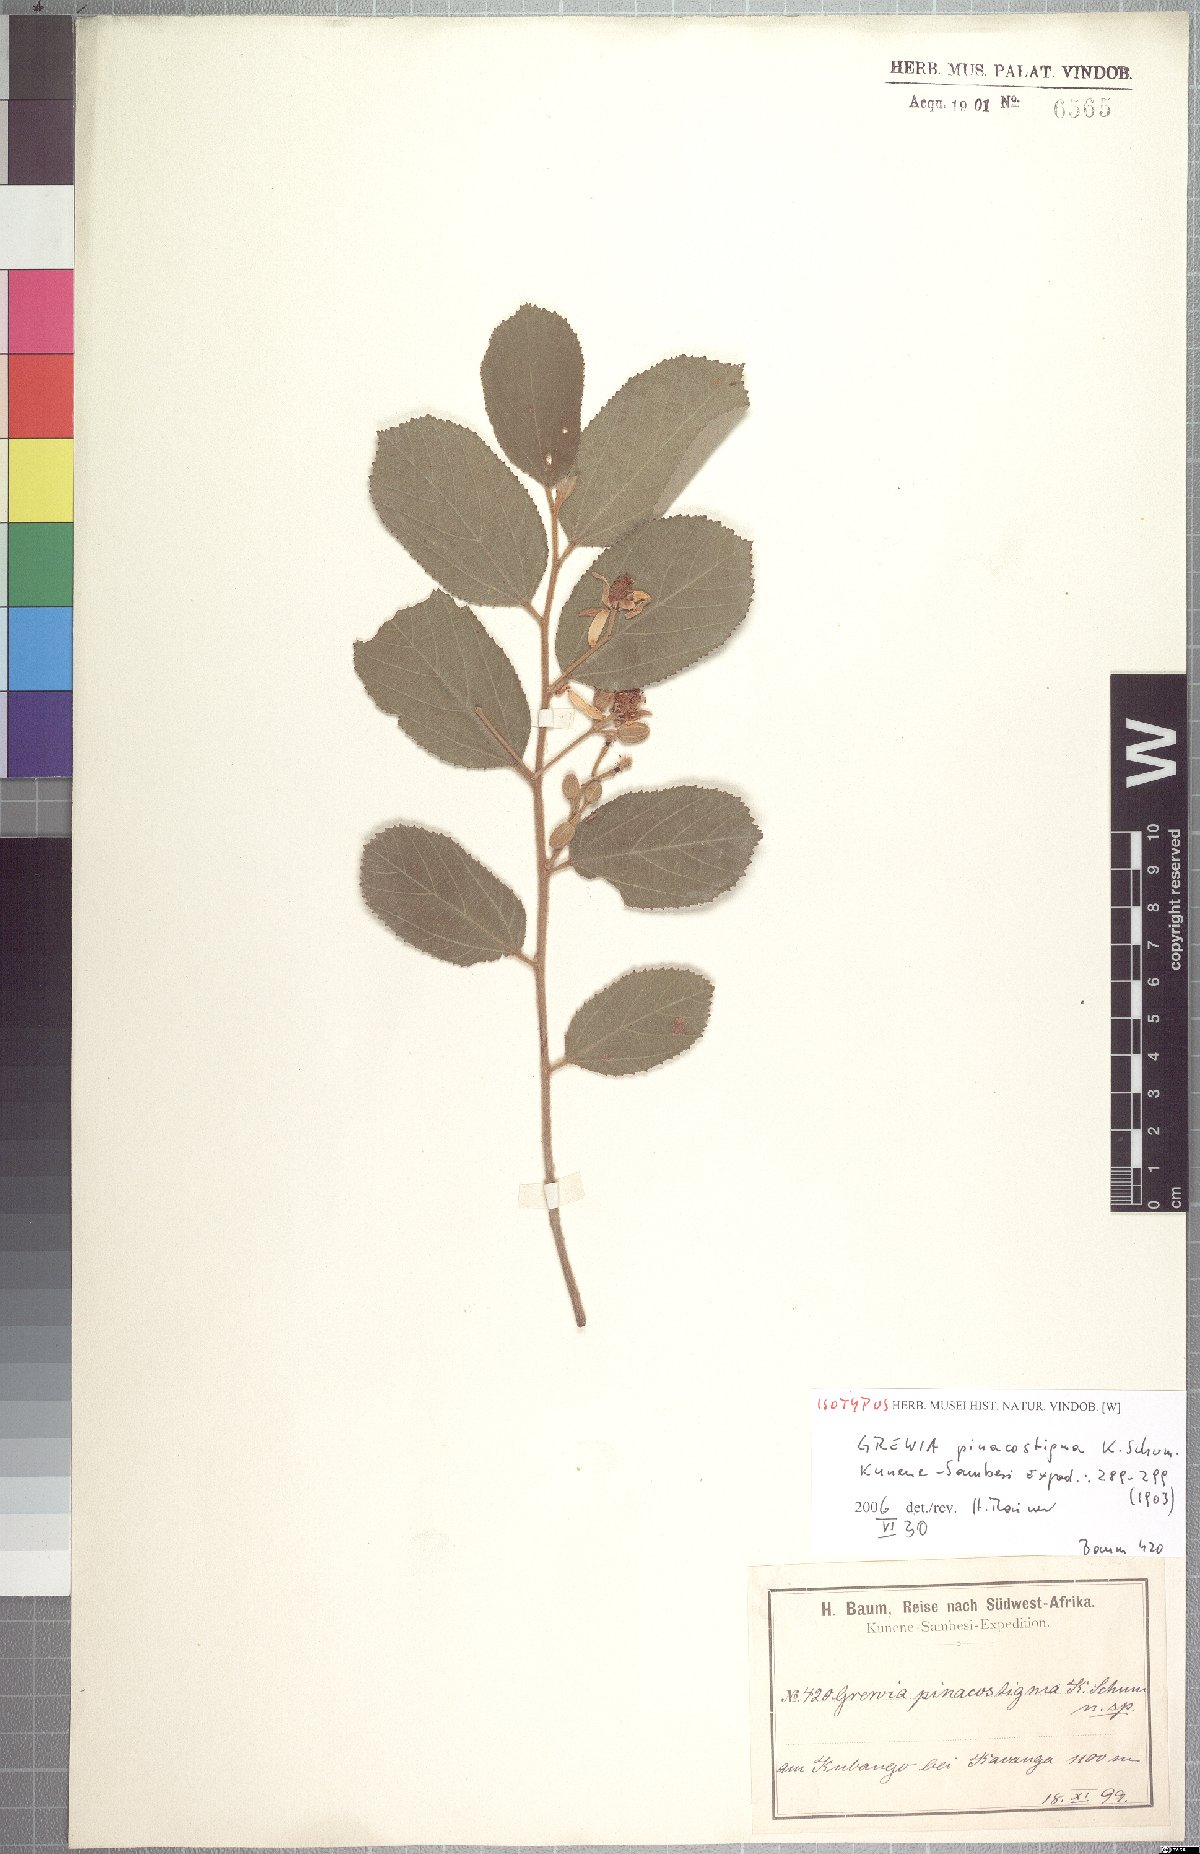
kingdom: Plantae
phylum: Tracheophyta
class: Magnoliopsida
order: Malvales
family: Malvaceae
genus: Grewia
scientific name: Grewia schinzii
